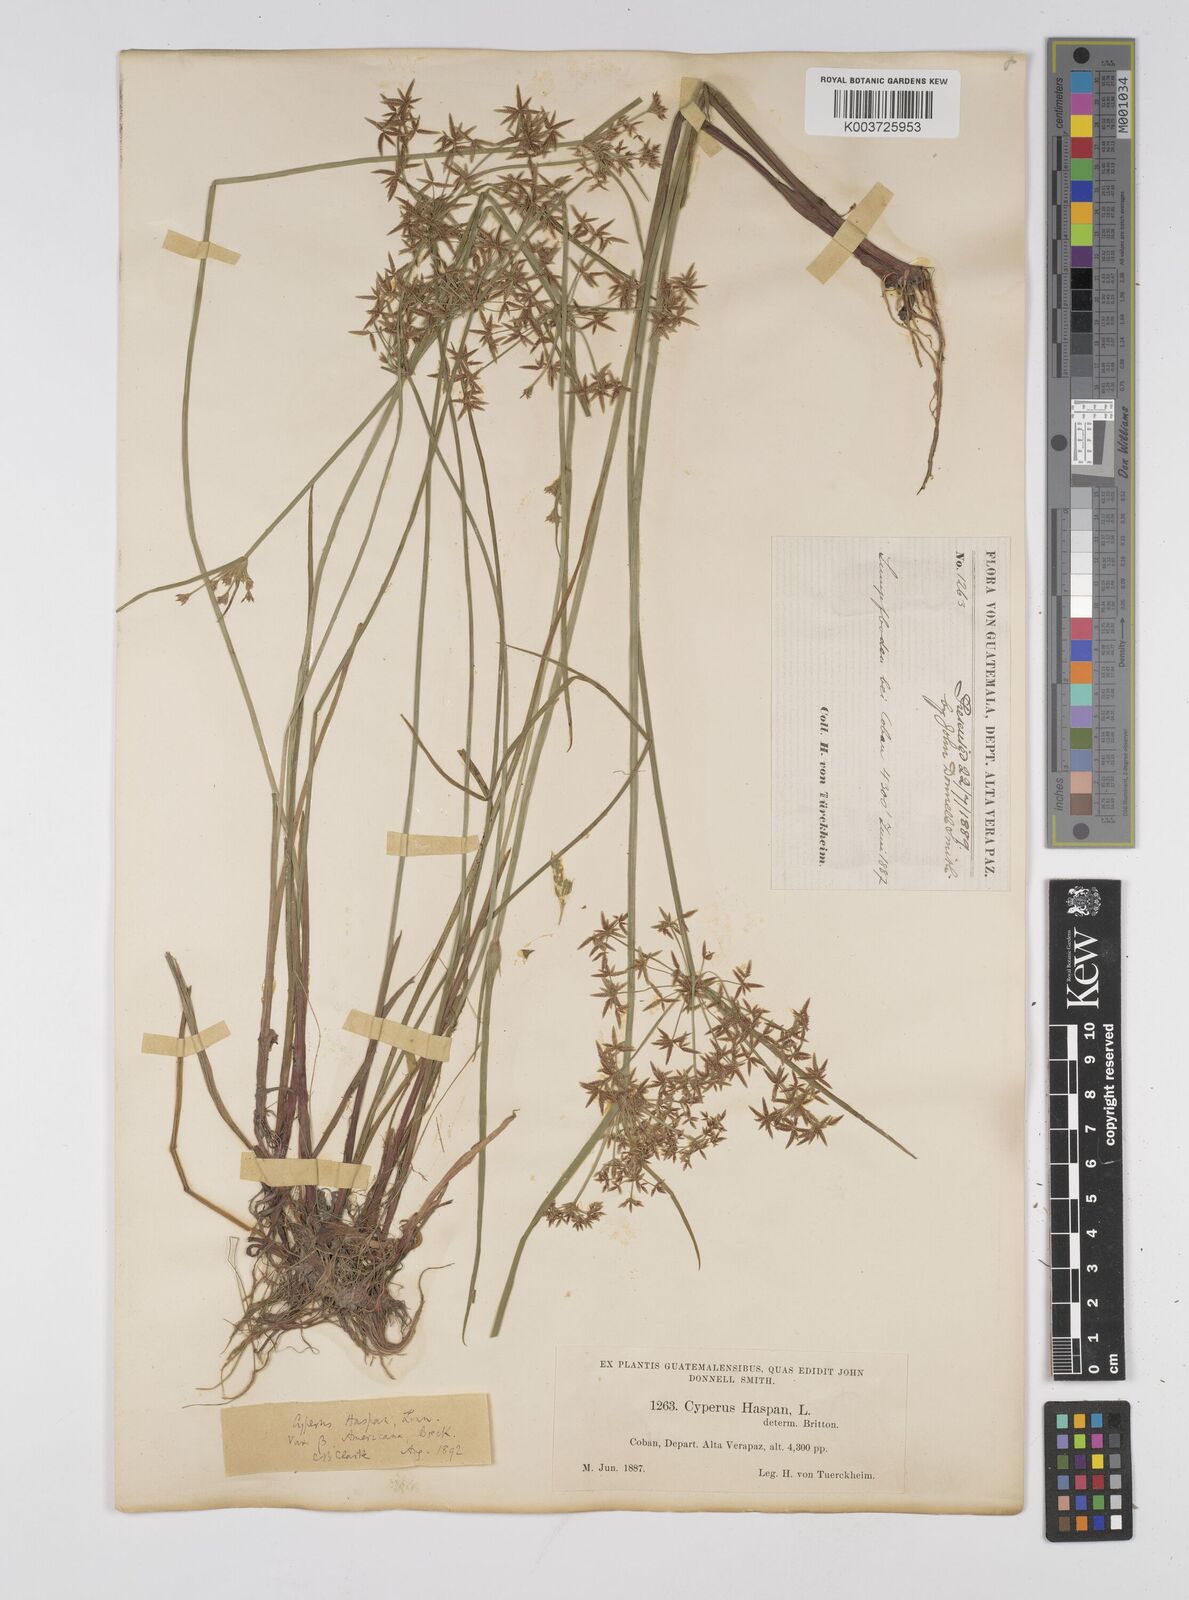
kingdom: Plantae
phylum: Tracheophyta
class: Liliopsida
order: Poales
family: Cyperaceae
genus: Cyperus
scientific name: Cyperus haspan
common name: Haspan flatsedge
